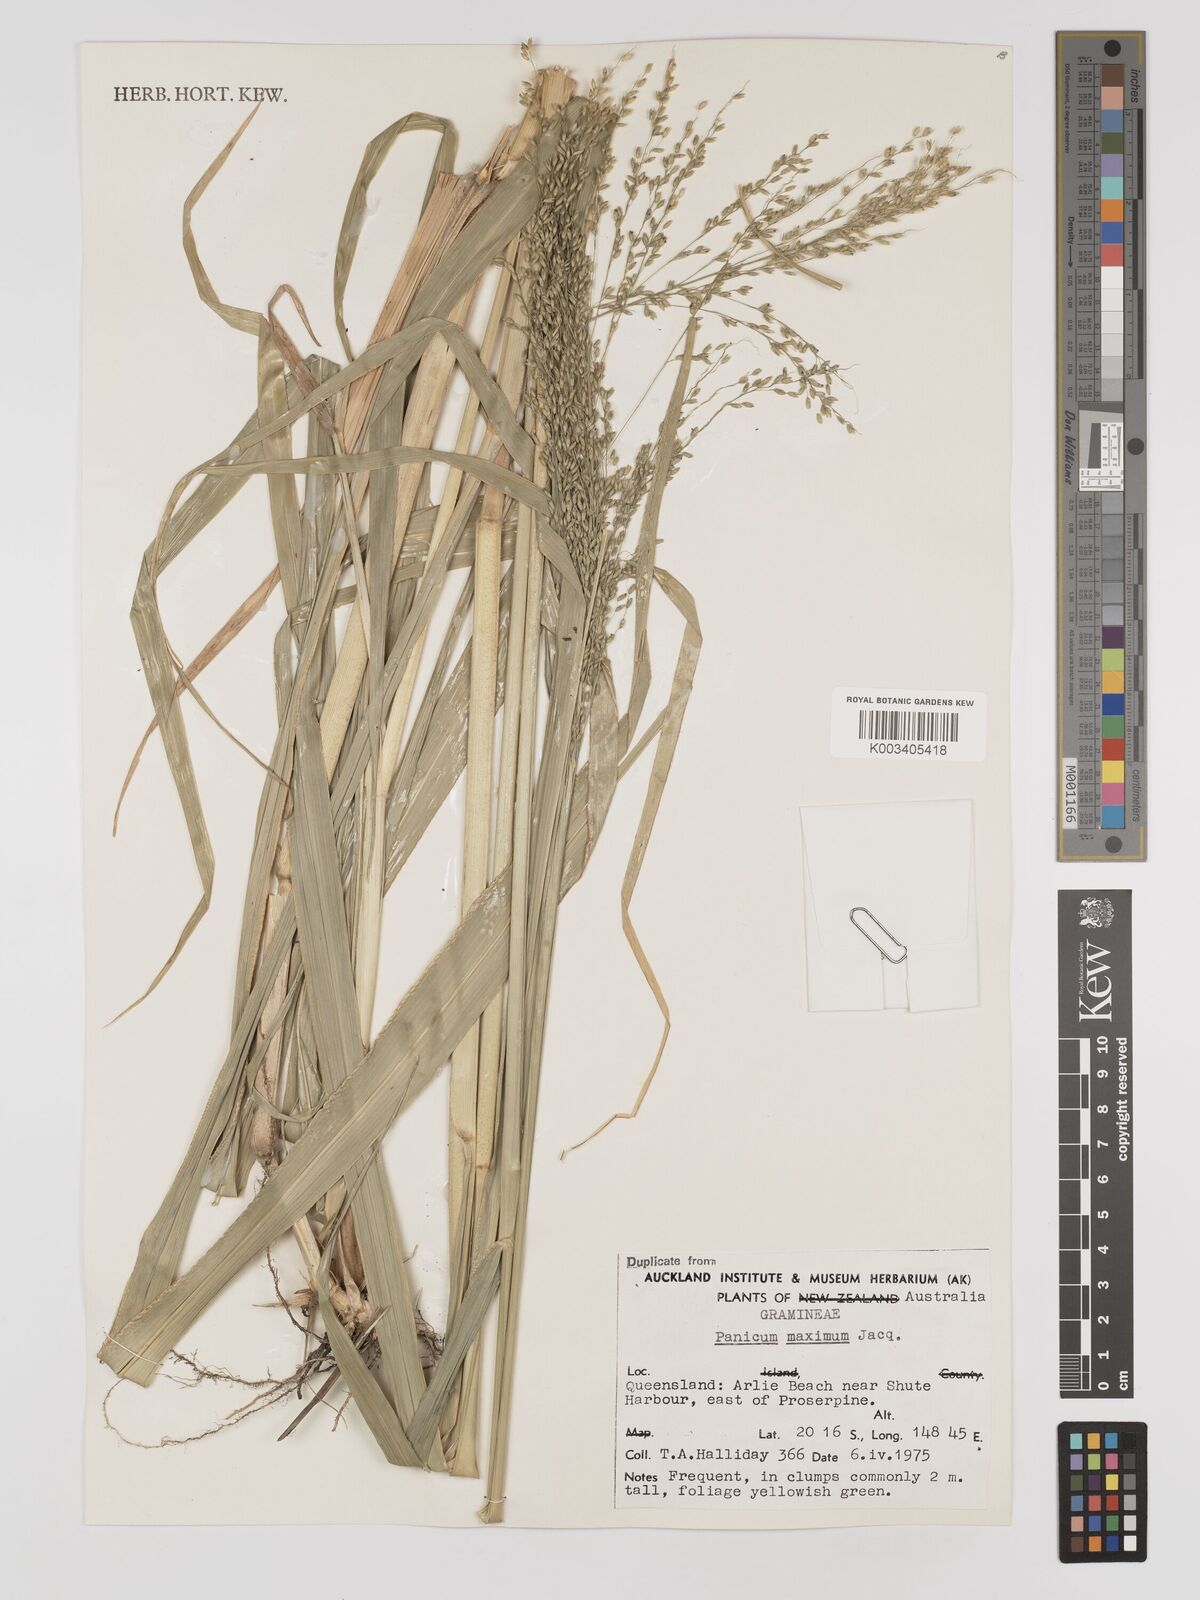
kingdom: Plantae
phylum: Tracheophyta
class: Liliopsida
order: Poales
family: Poaceae
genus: Megathyrsus
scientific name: Megathyrsus maximus
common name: Guineagrass
